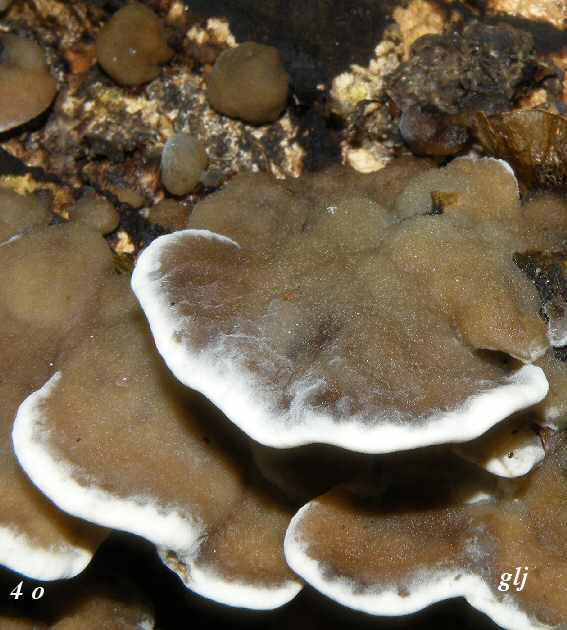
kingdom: Fungi
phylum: Basidiomycota
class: Agaricomycetes
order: Polyporales
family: Phanerochaetaceae
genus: Bjerkandera
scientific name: Bjerkandera adusta
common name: sveden sodporesvamp
